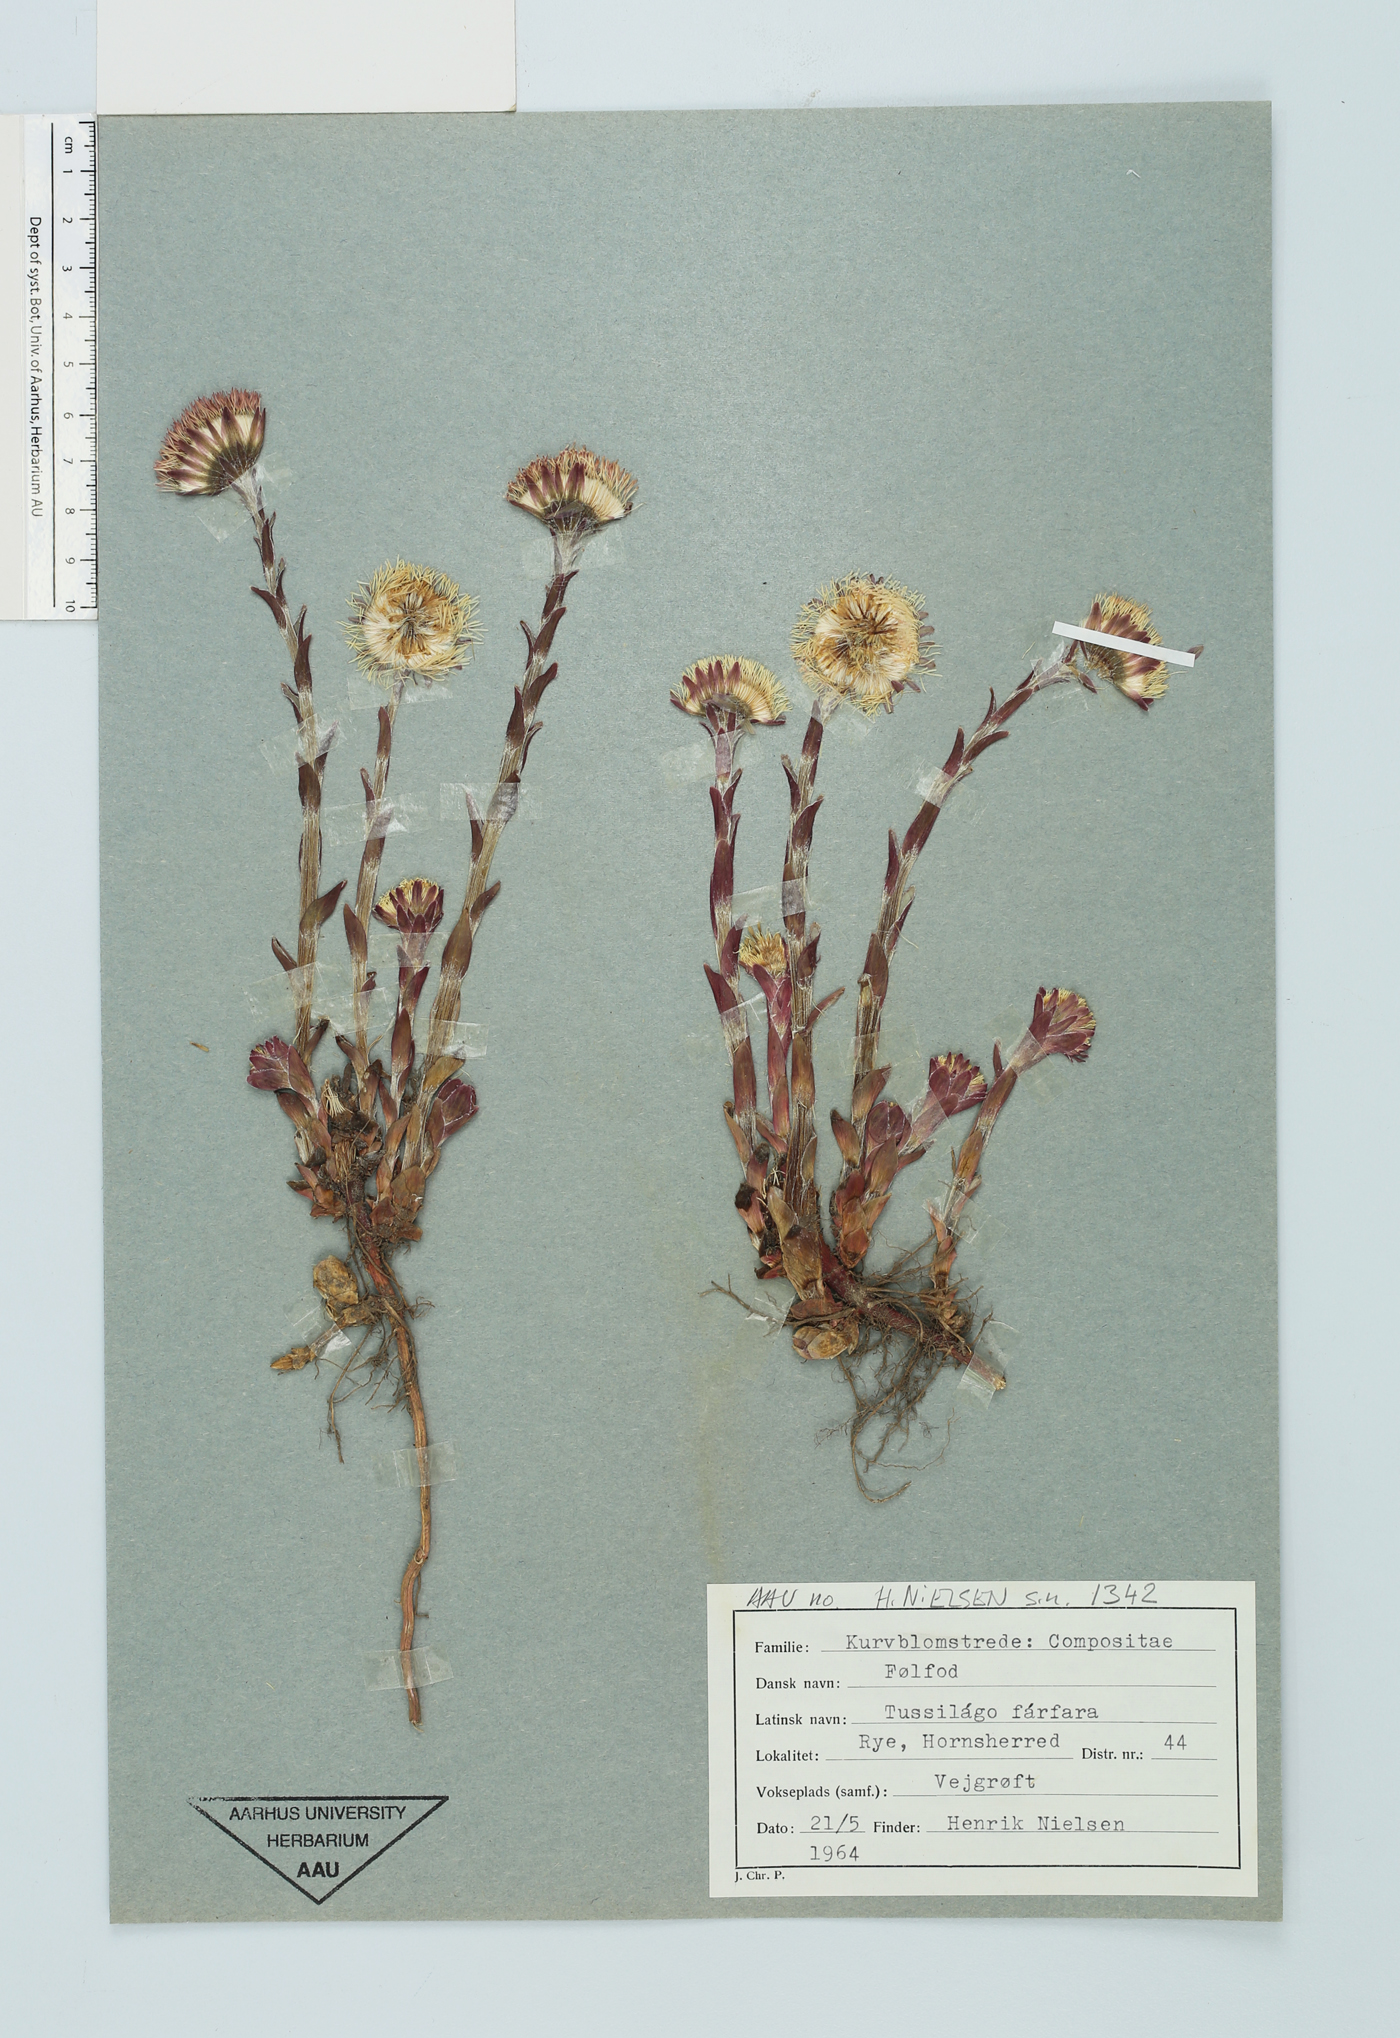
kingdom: Plantae
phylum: Tracheophyta
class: Magnoliopsida
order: Asterales
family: Asteraceae
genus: Tussilago
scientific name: Tussilago farfara
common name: Coltsfoot
